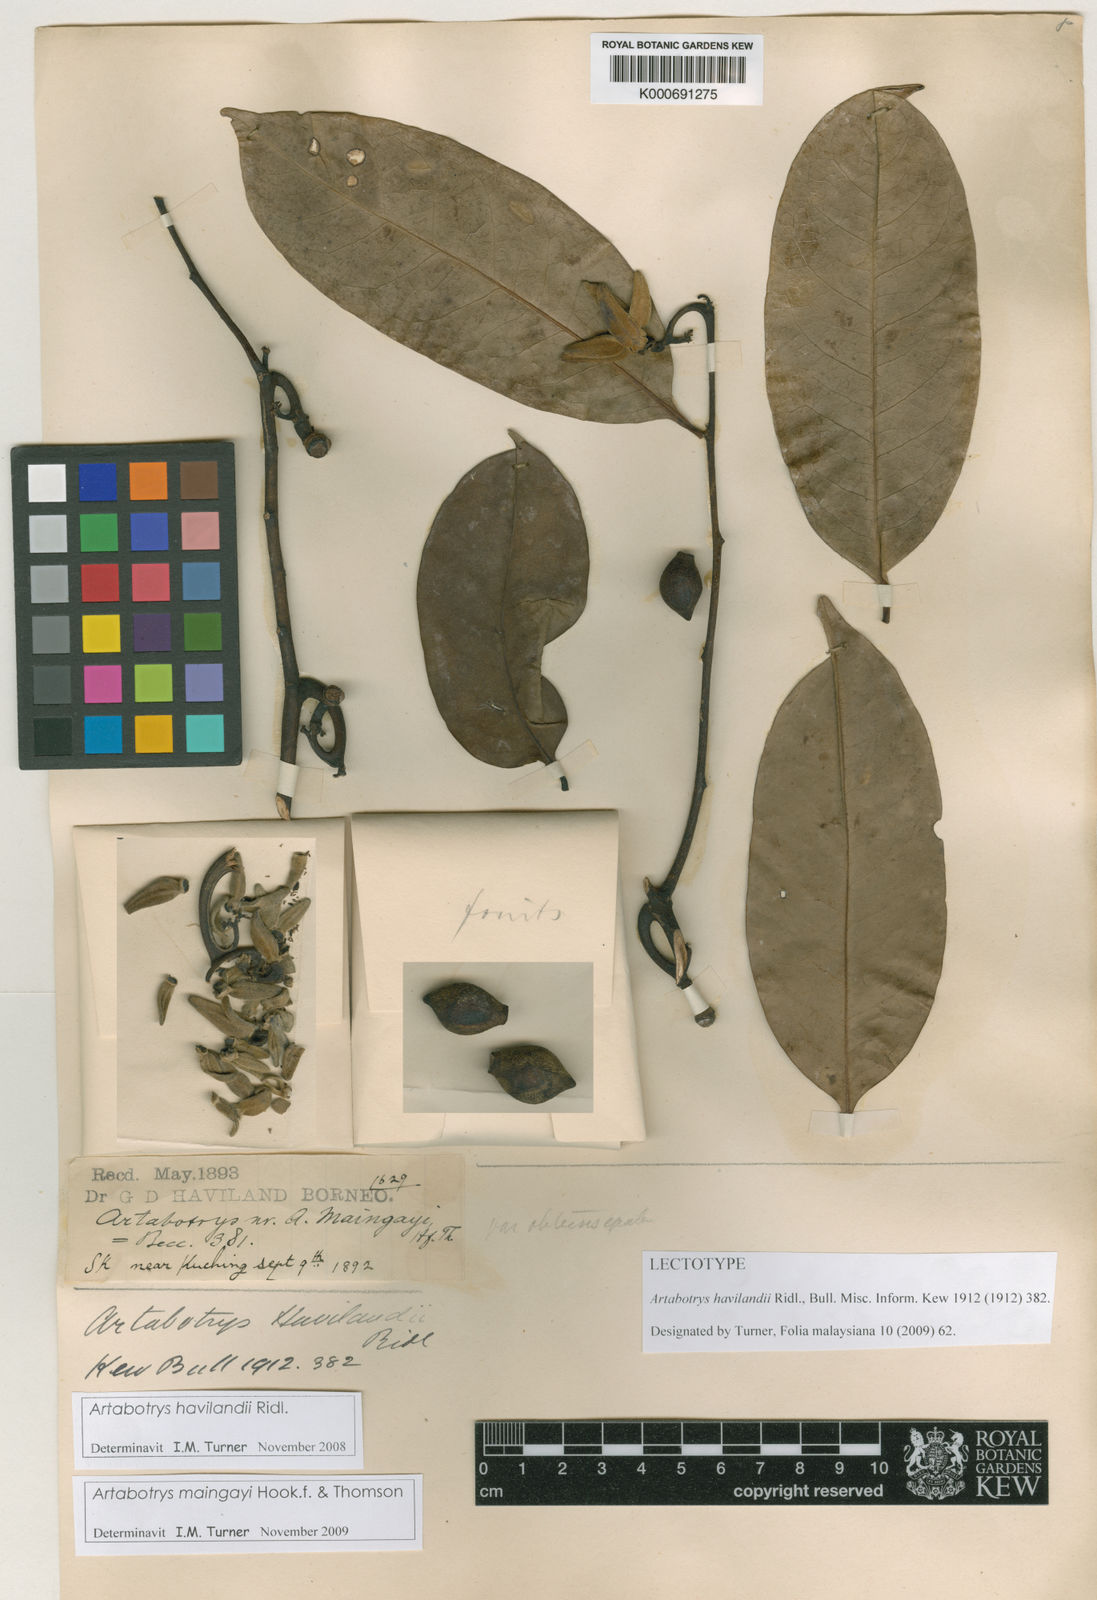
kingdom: Plantae
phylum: Tracheophyta
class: Magnoliopsida
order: Magnoliales
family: Annonaceae
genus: Artabotrys
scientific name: Artabotrys maingayi
